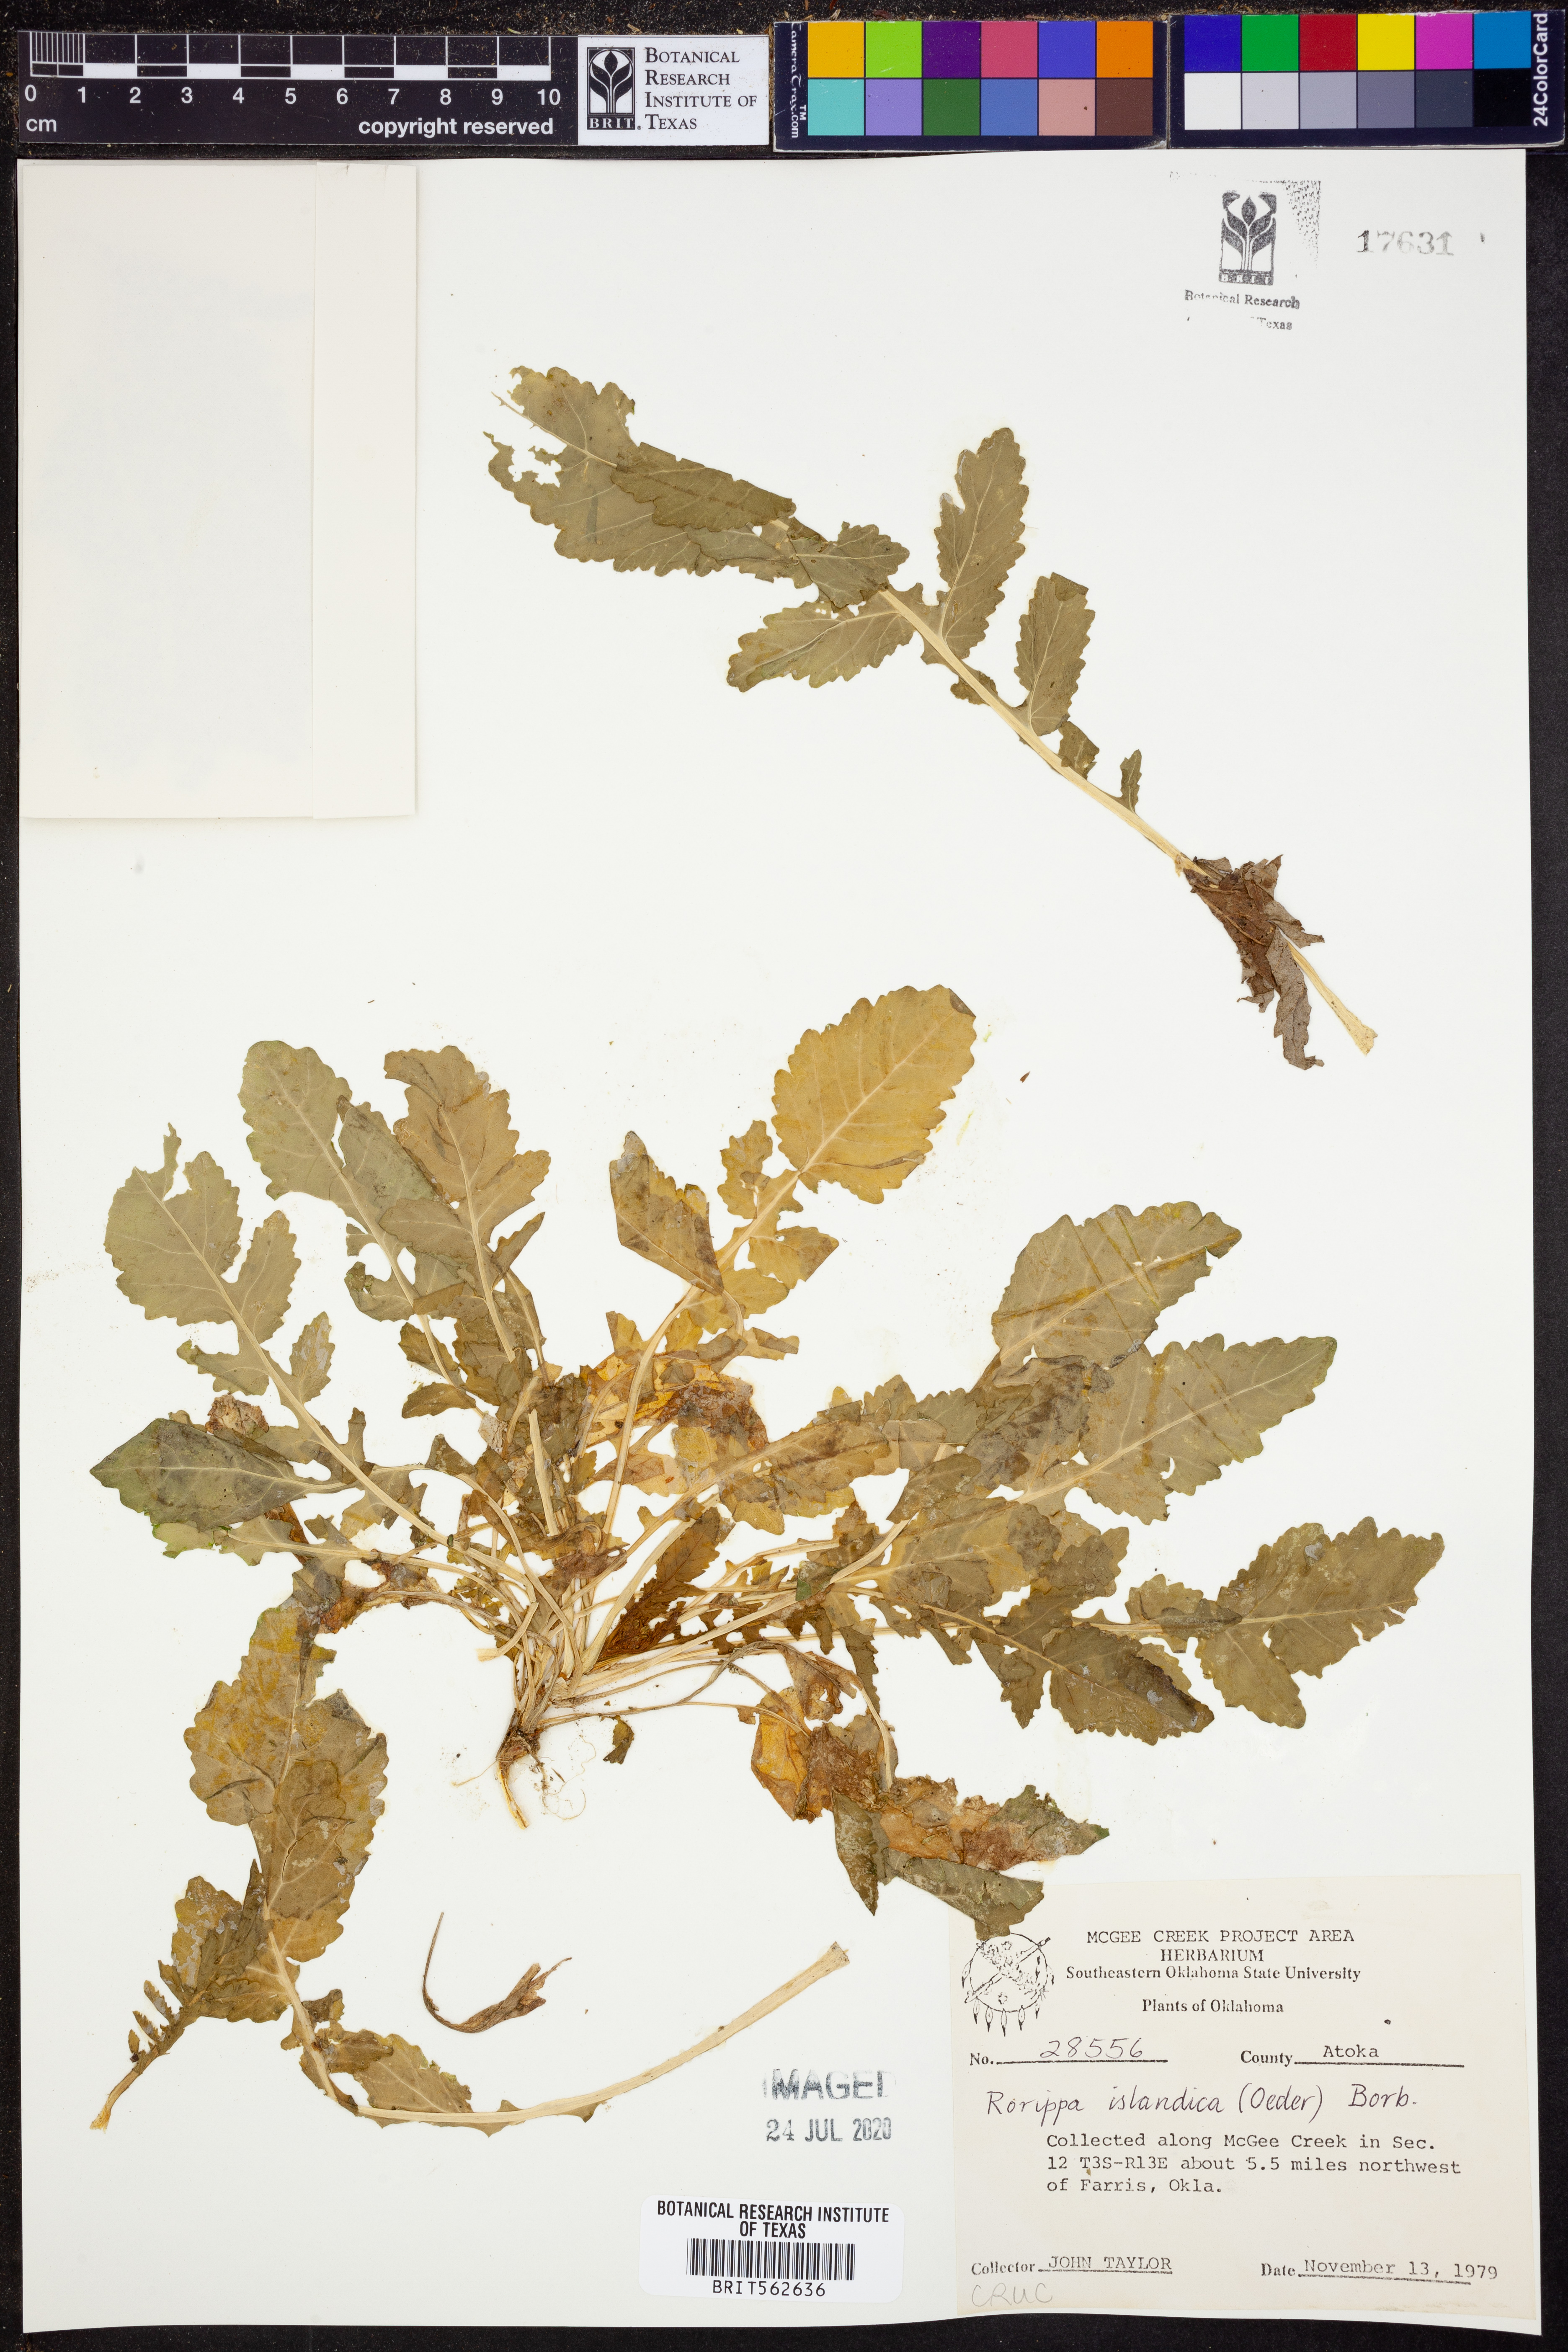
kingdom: Plantae
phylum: Tracheophyta
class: Magnoliopsida
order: Brassicales
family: Brassicaceae
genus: Rorippa
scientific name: Rorippa islandica
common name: Marsh cress
